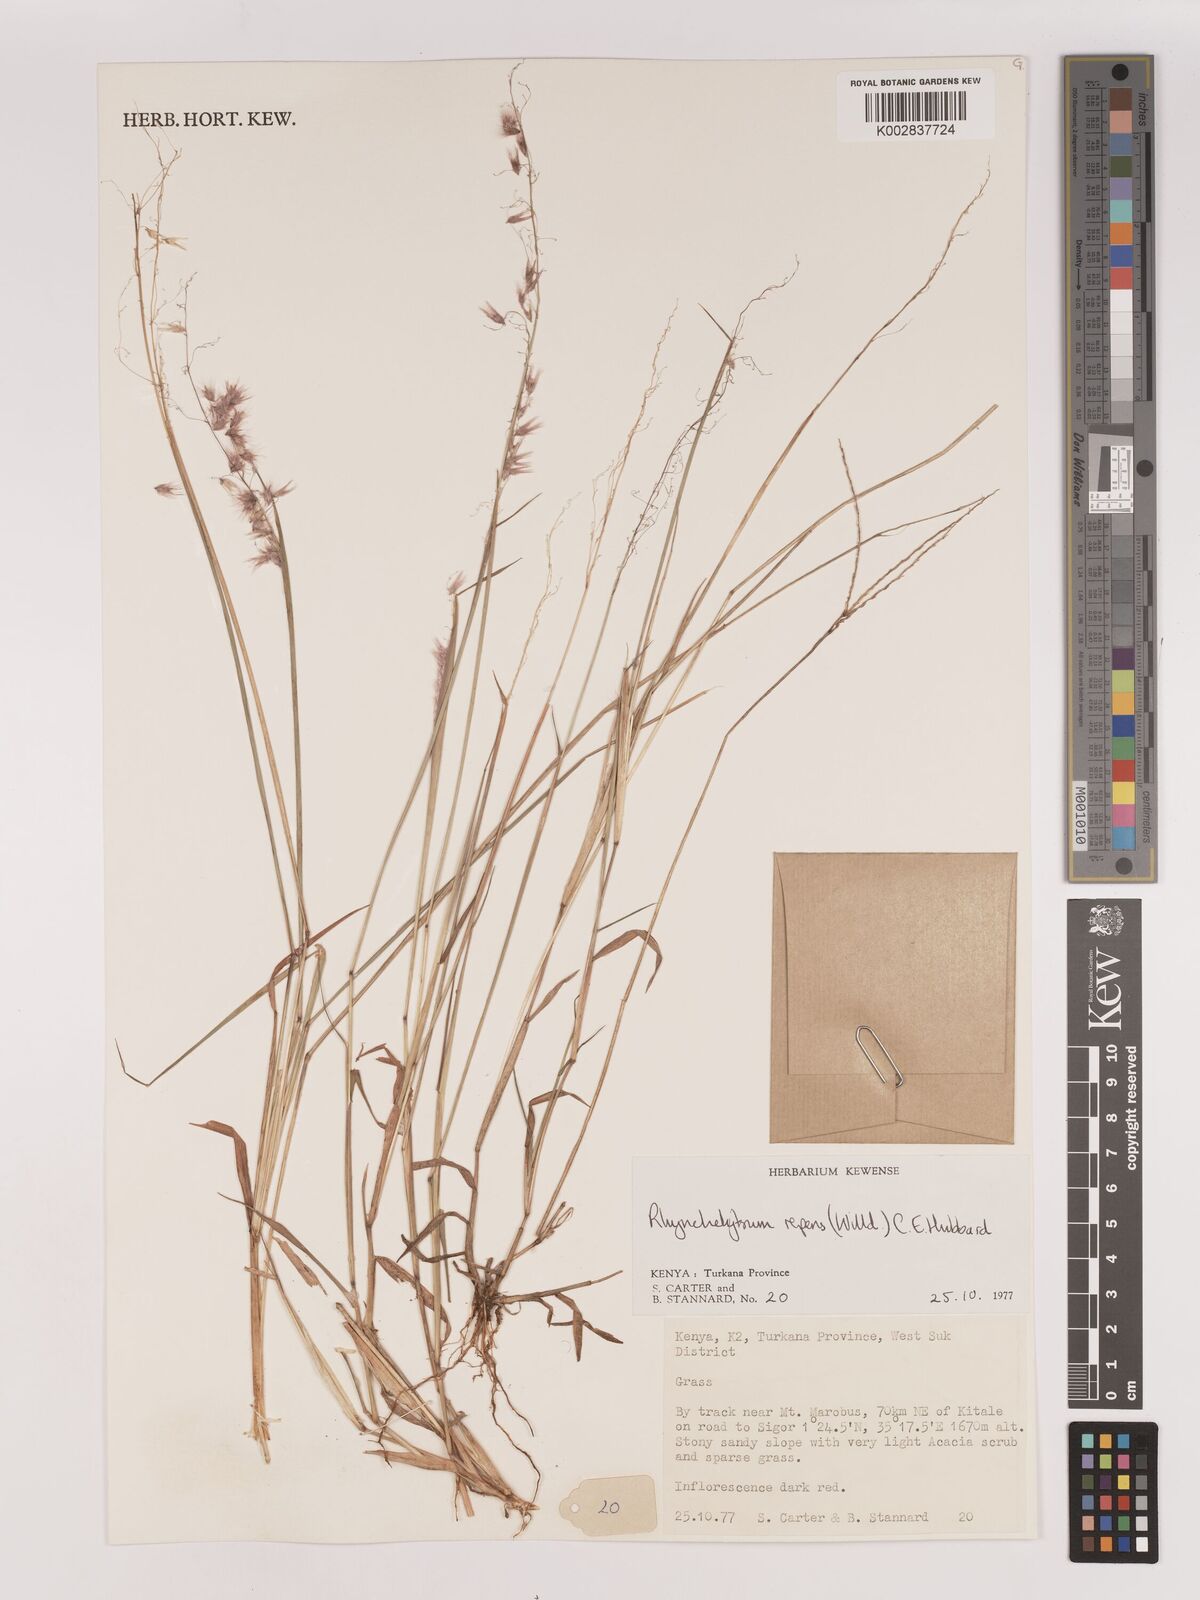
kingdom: Plantae
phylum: Tracheophyta
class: Liliopsida
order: Poales
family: Poaceae
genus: Melinis
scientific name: Melinis repens
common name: Rose natal grass
